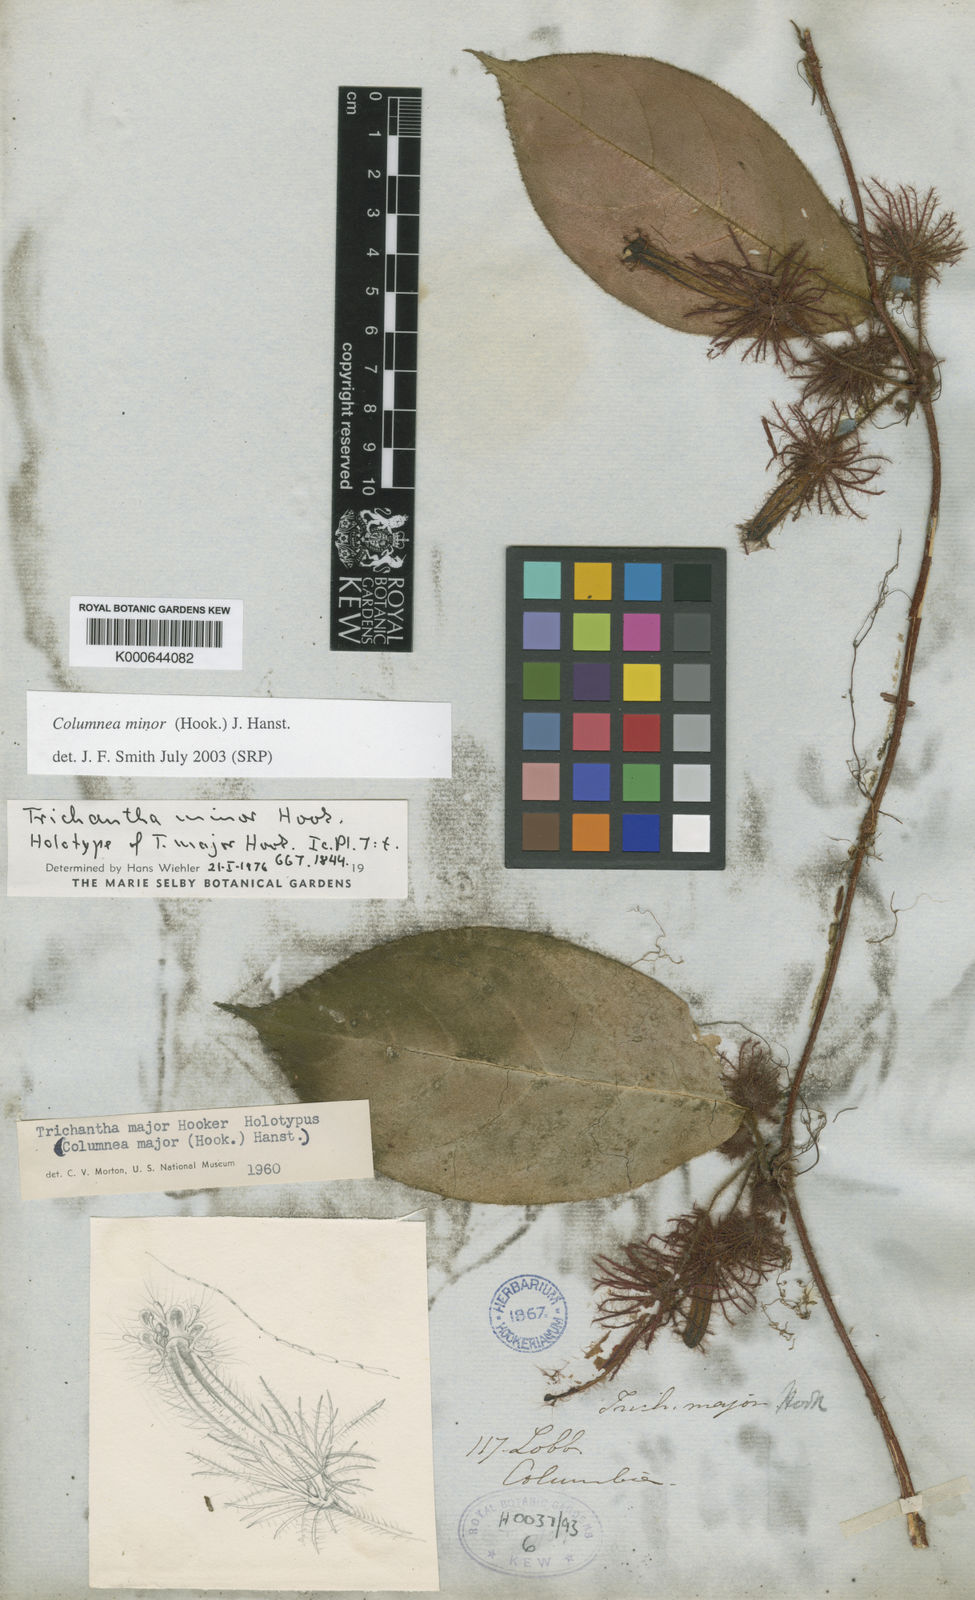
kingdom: Plantae
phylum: Tracheophyta
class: Magnoliopsida
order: Lamiales
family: Gesneriaceae
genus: Columnea
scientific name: Columnea minor
